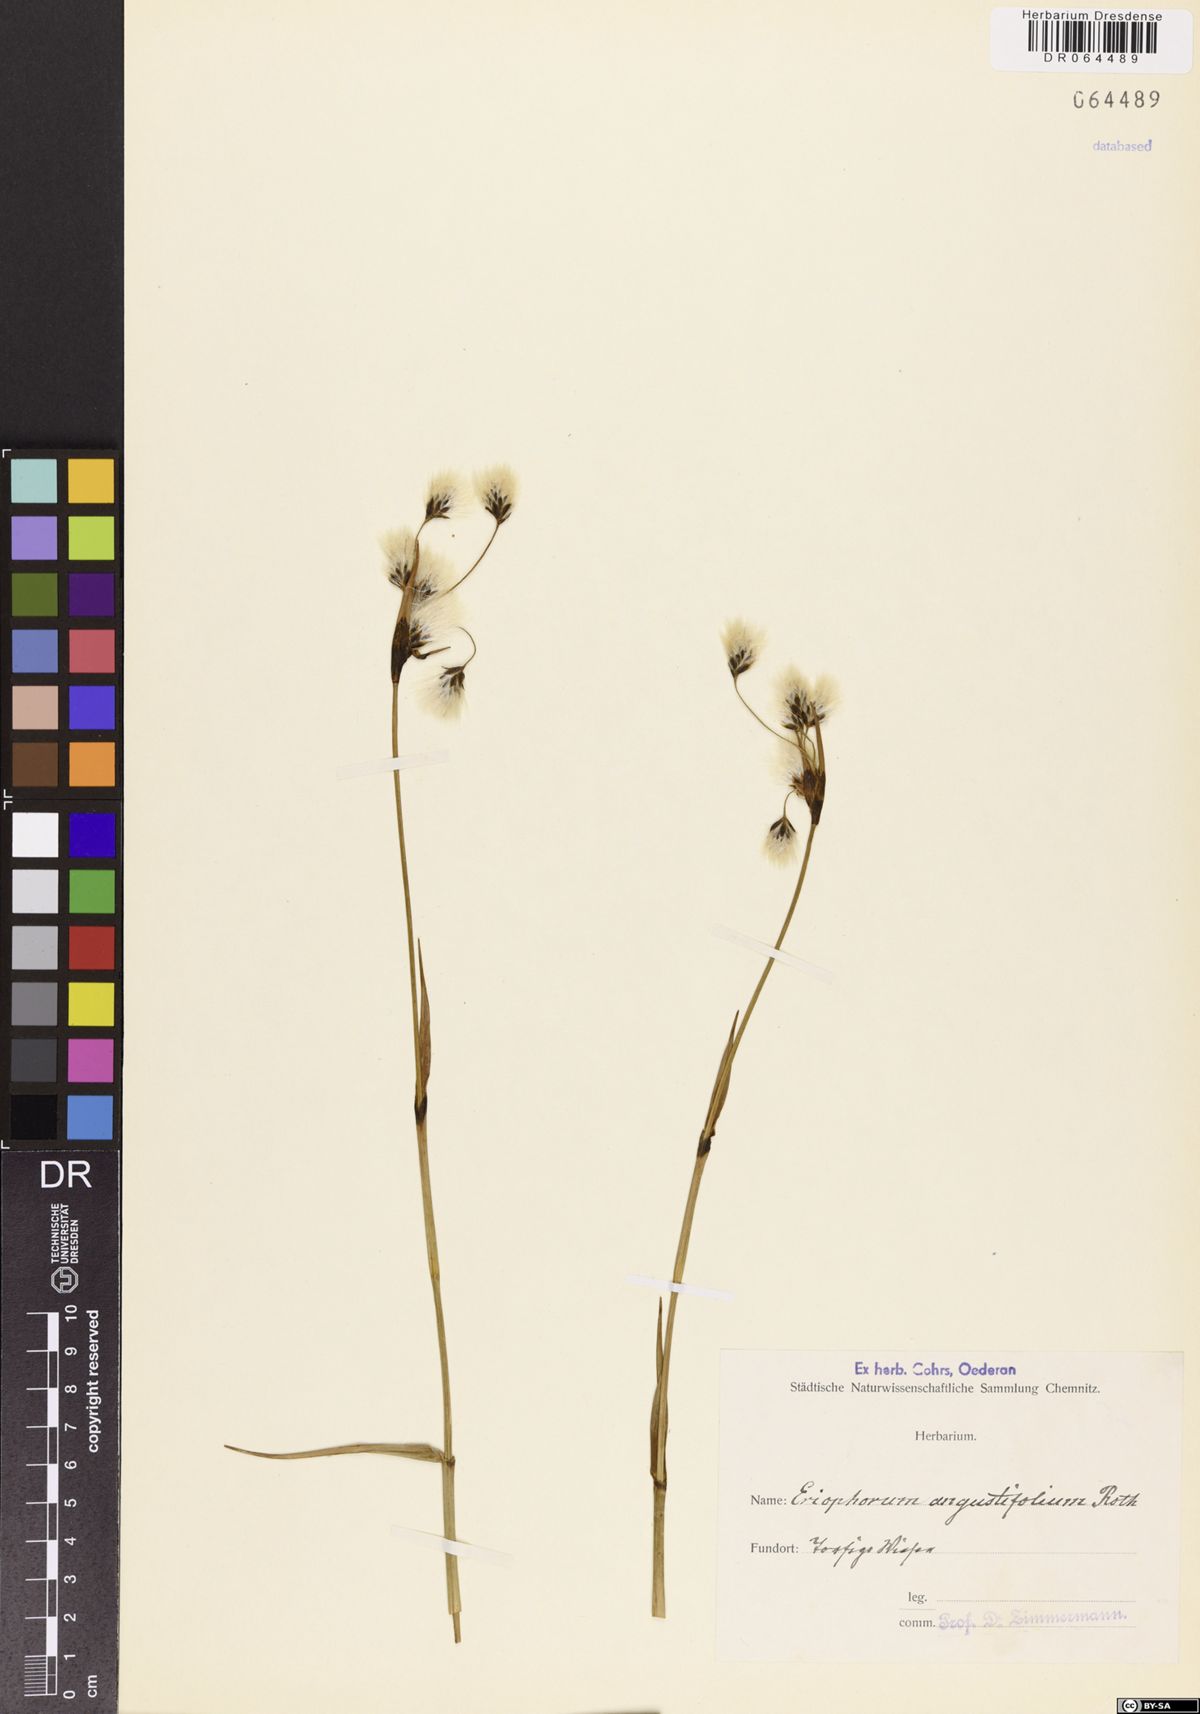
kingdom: Plantae
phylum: Tracheophyta
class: Liliopsida
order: Poales
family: Cyperaceae
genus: Eriophorum
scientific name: Eriophorum angustifolium
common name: Common cottongrass
